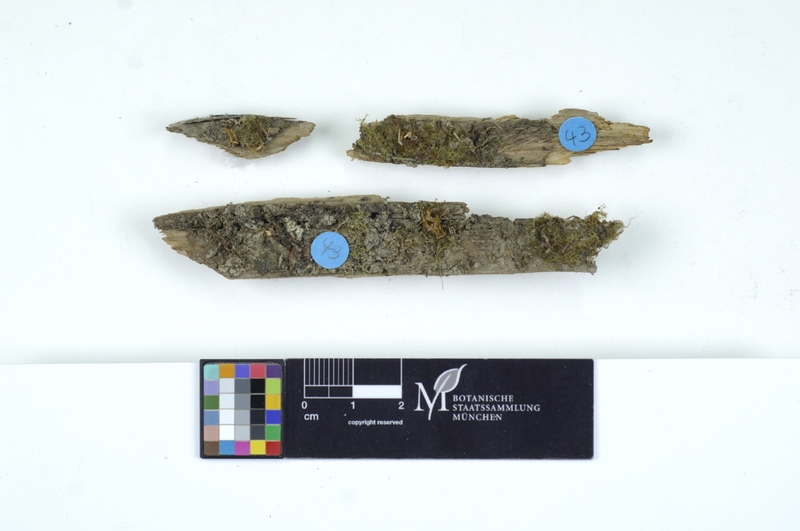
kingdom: Fungi
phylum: Basidiomycota
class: Dacrymycetes
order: Dacrymycetales
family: Dacrymycetaceae
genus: Calocera
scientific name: Calocera cornea
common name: Small stagshorn
